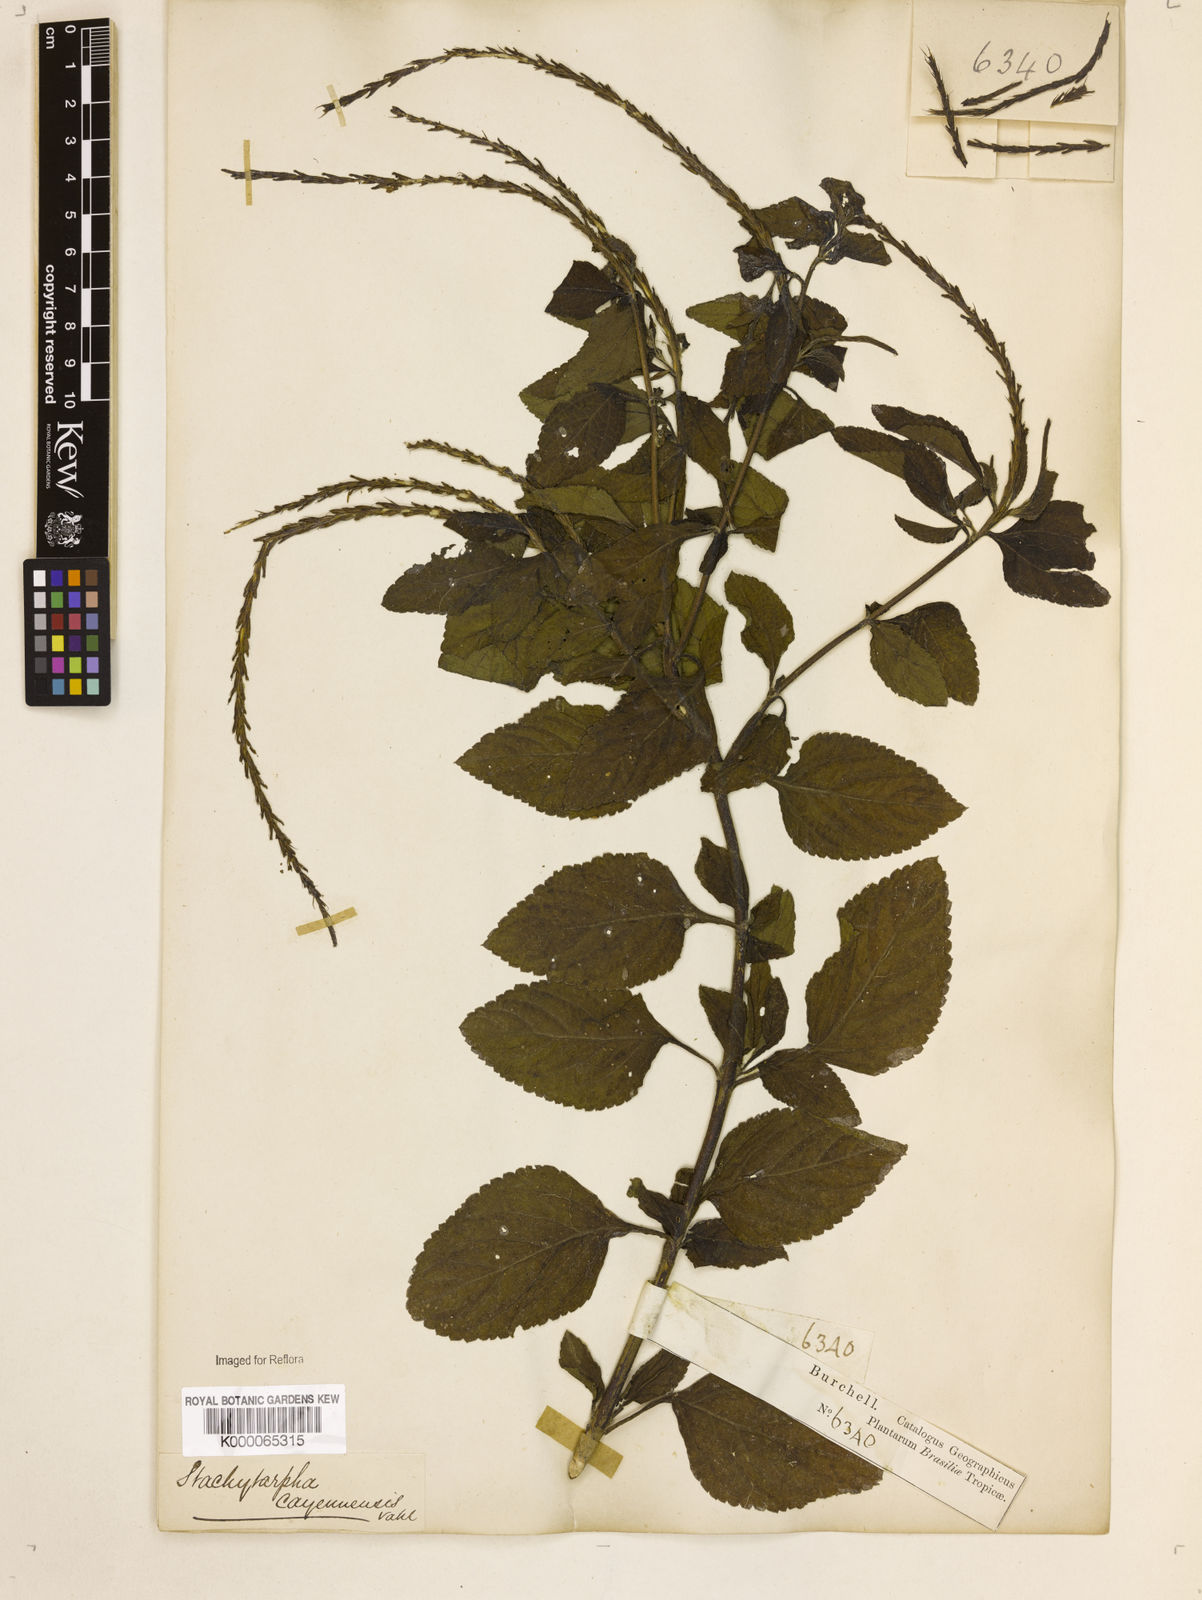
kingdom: Plantae
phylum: Tracheophyta
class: Magnoliopsida
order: Lamiales
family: Verbenaceae
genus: Stachytarpheta
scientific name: Stachytarpheta polyura
